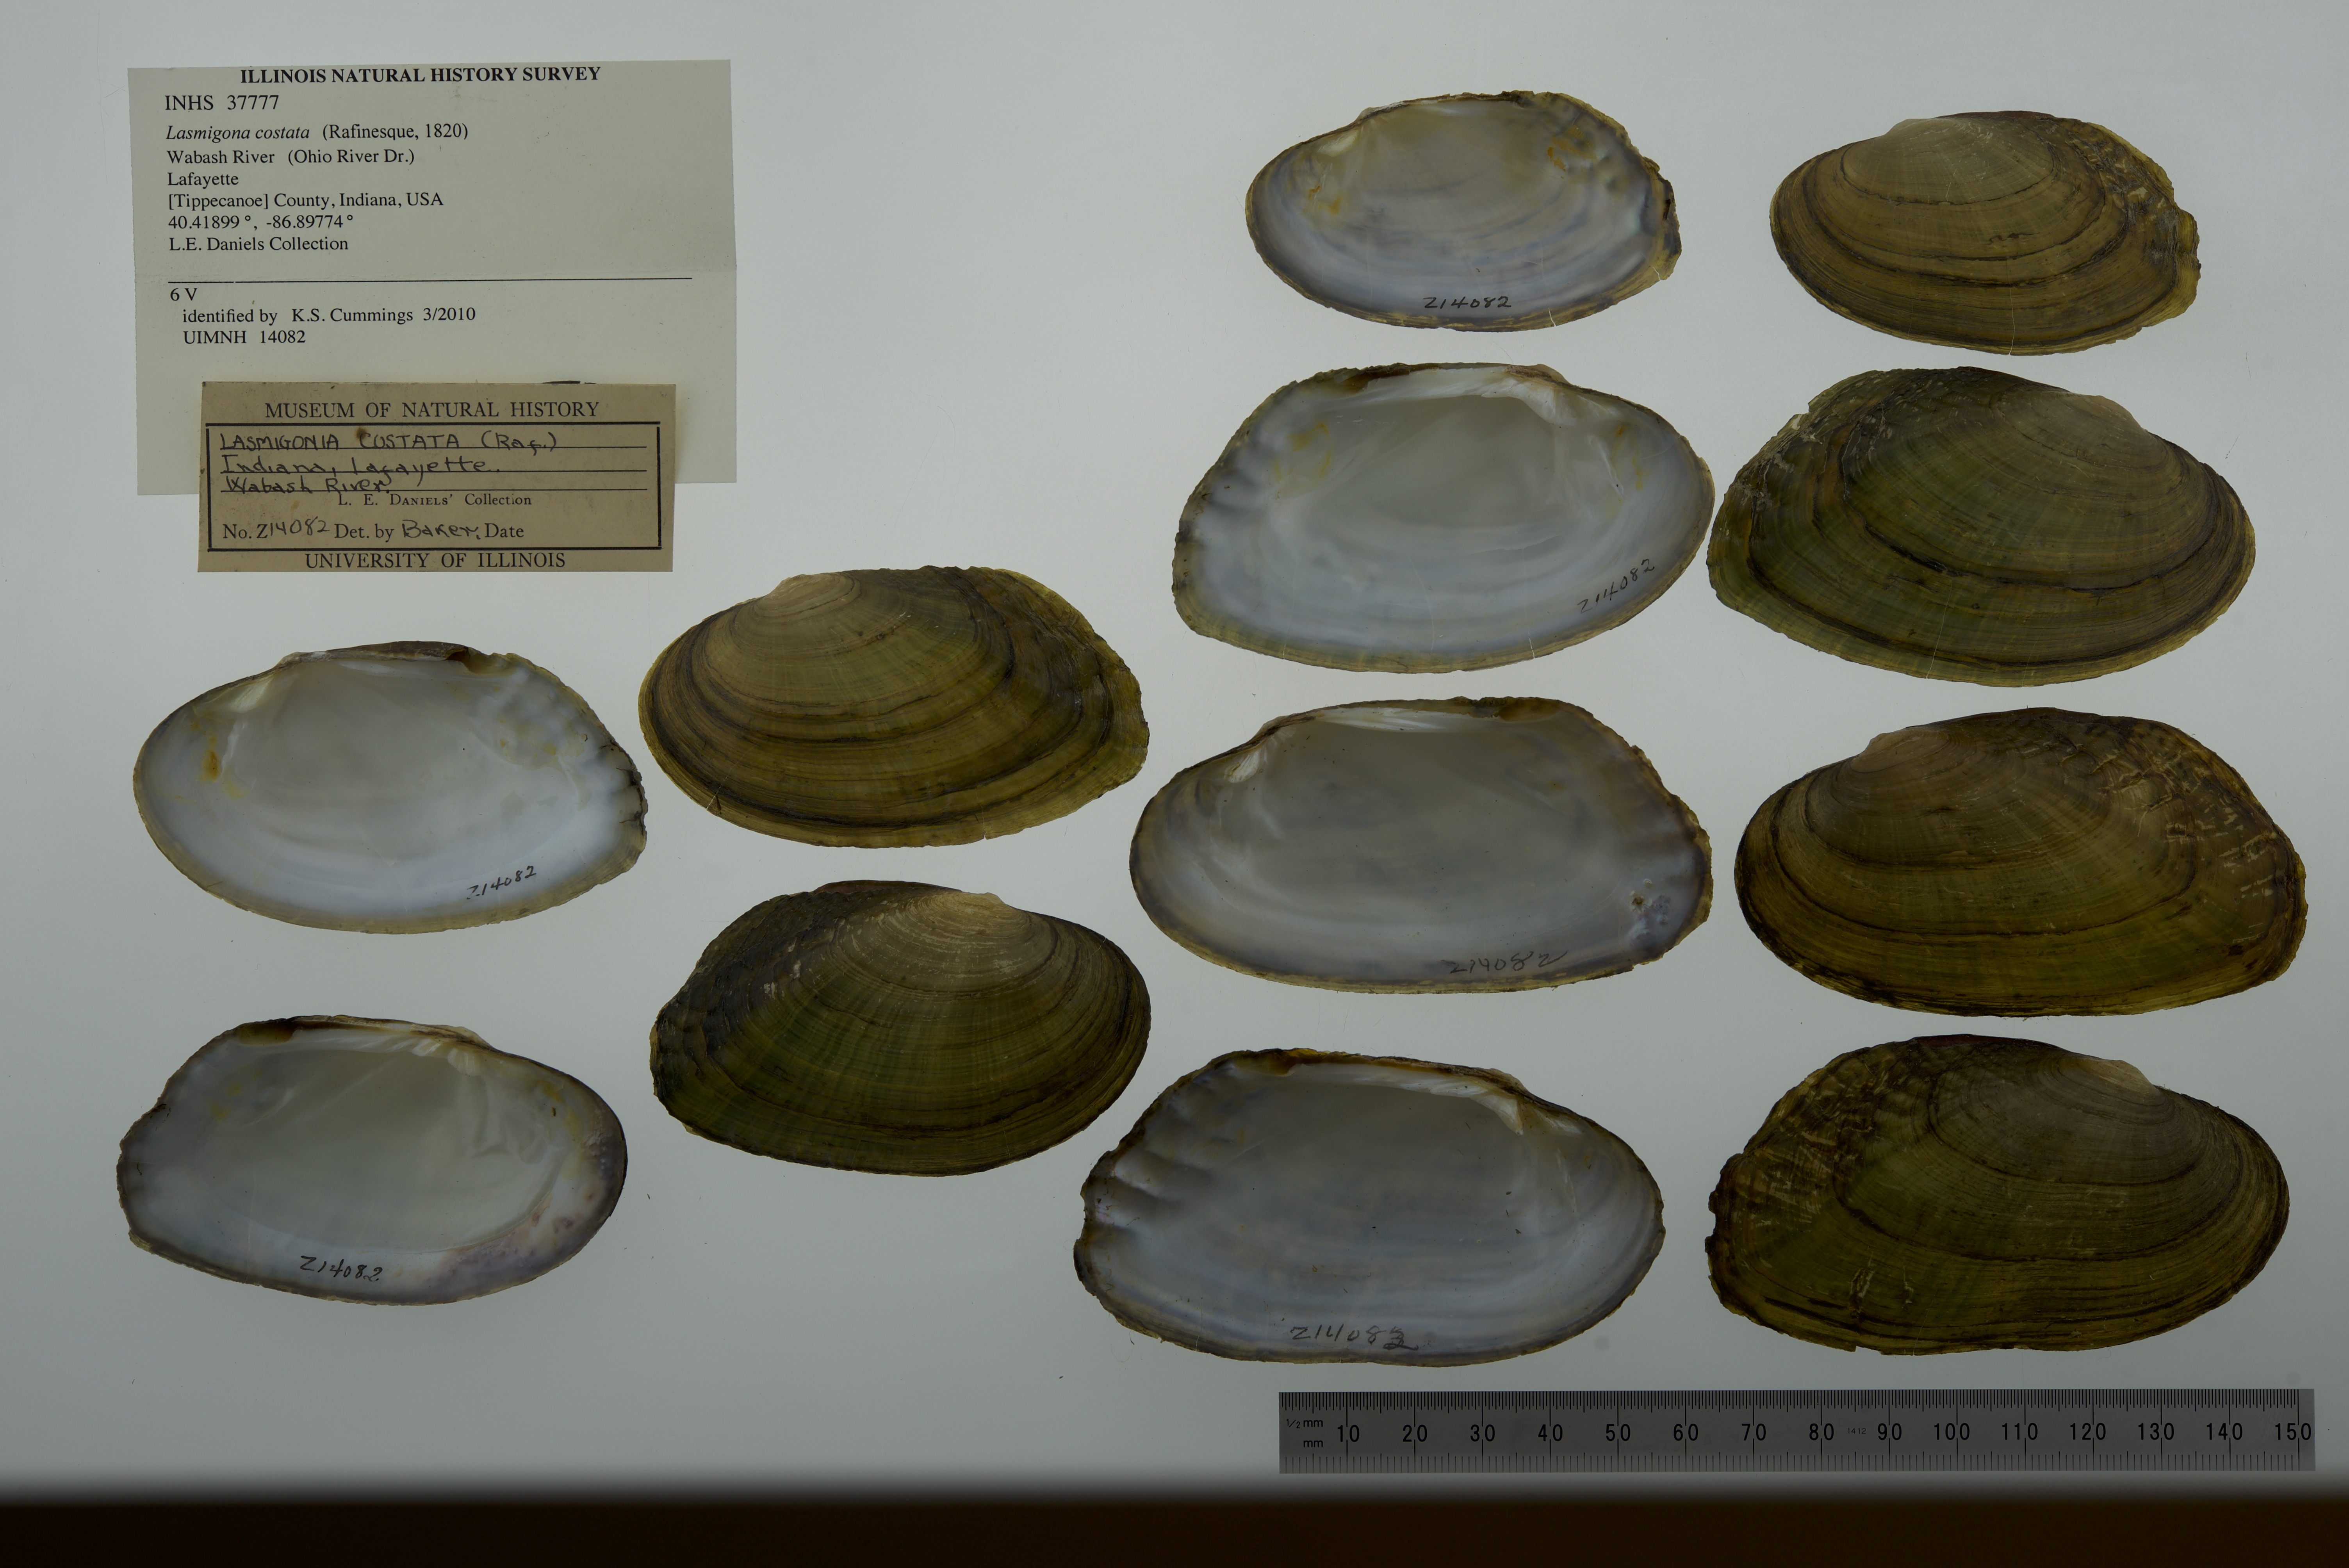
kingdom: Animalia
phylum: Mollusca
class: Bivalvia
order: Unionida
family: Unionidae
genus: Lasmigona
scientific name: Lasmigona costata
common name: Flutedshell
